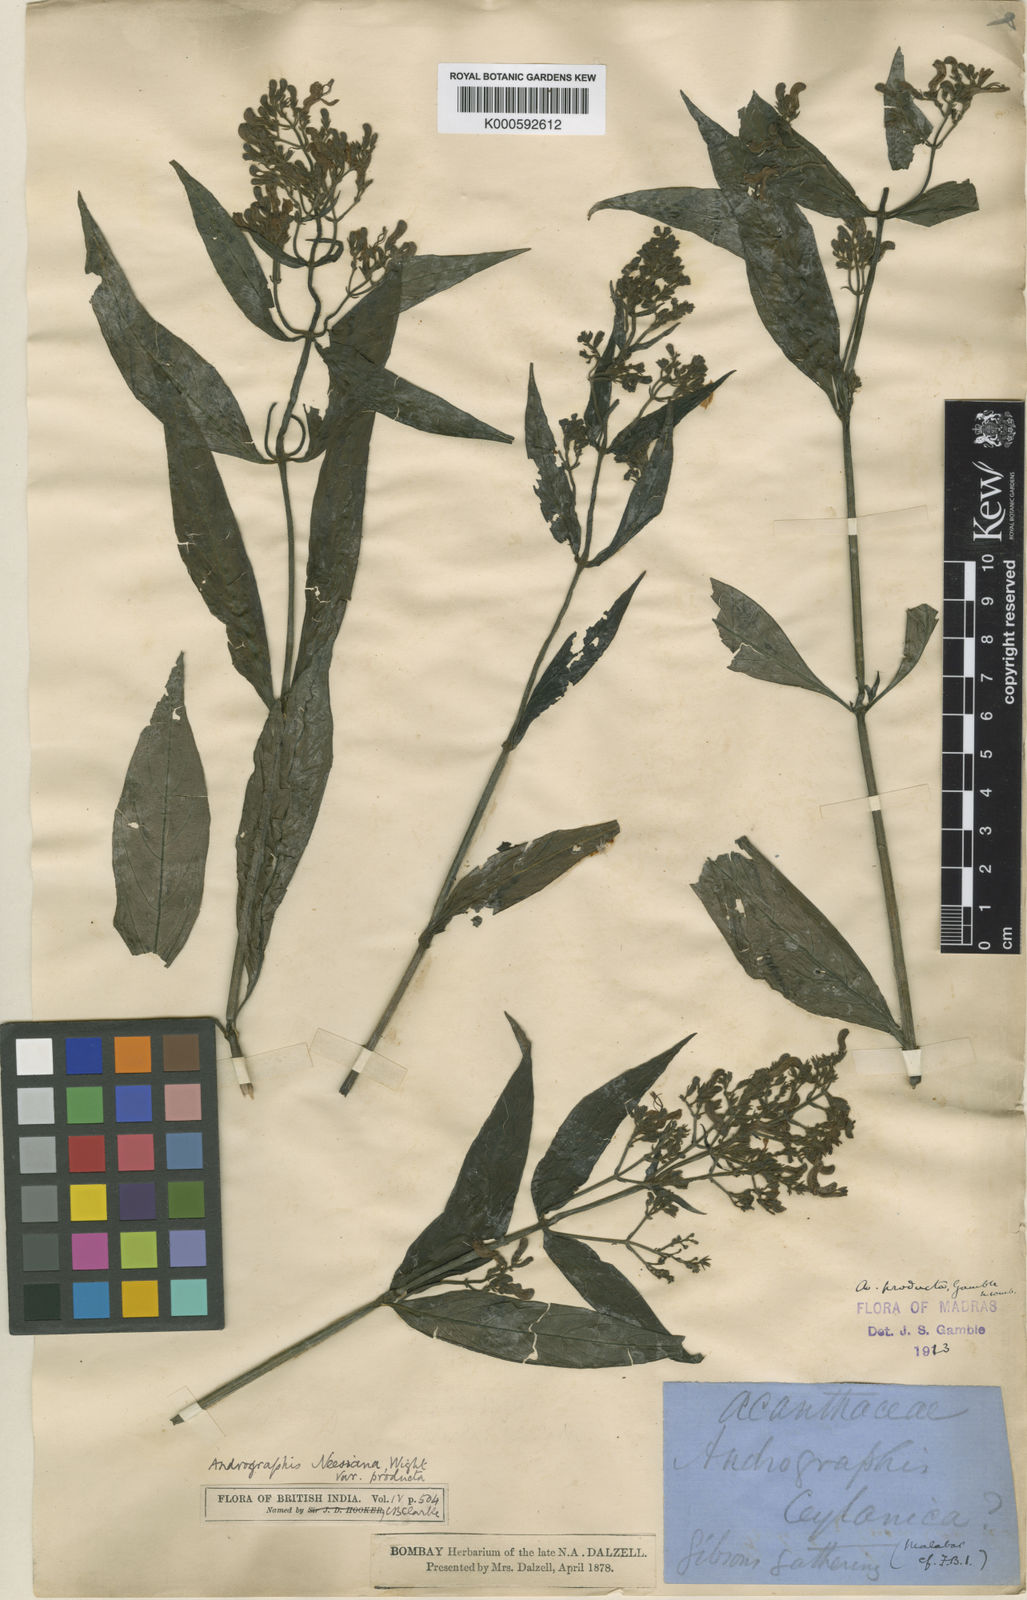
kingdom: Plantae
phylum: Tracheophyta
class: Magnoliopsida
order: Lamiales
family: Acanthaceae
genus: Andrographis
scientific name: Andrographis producta
